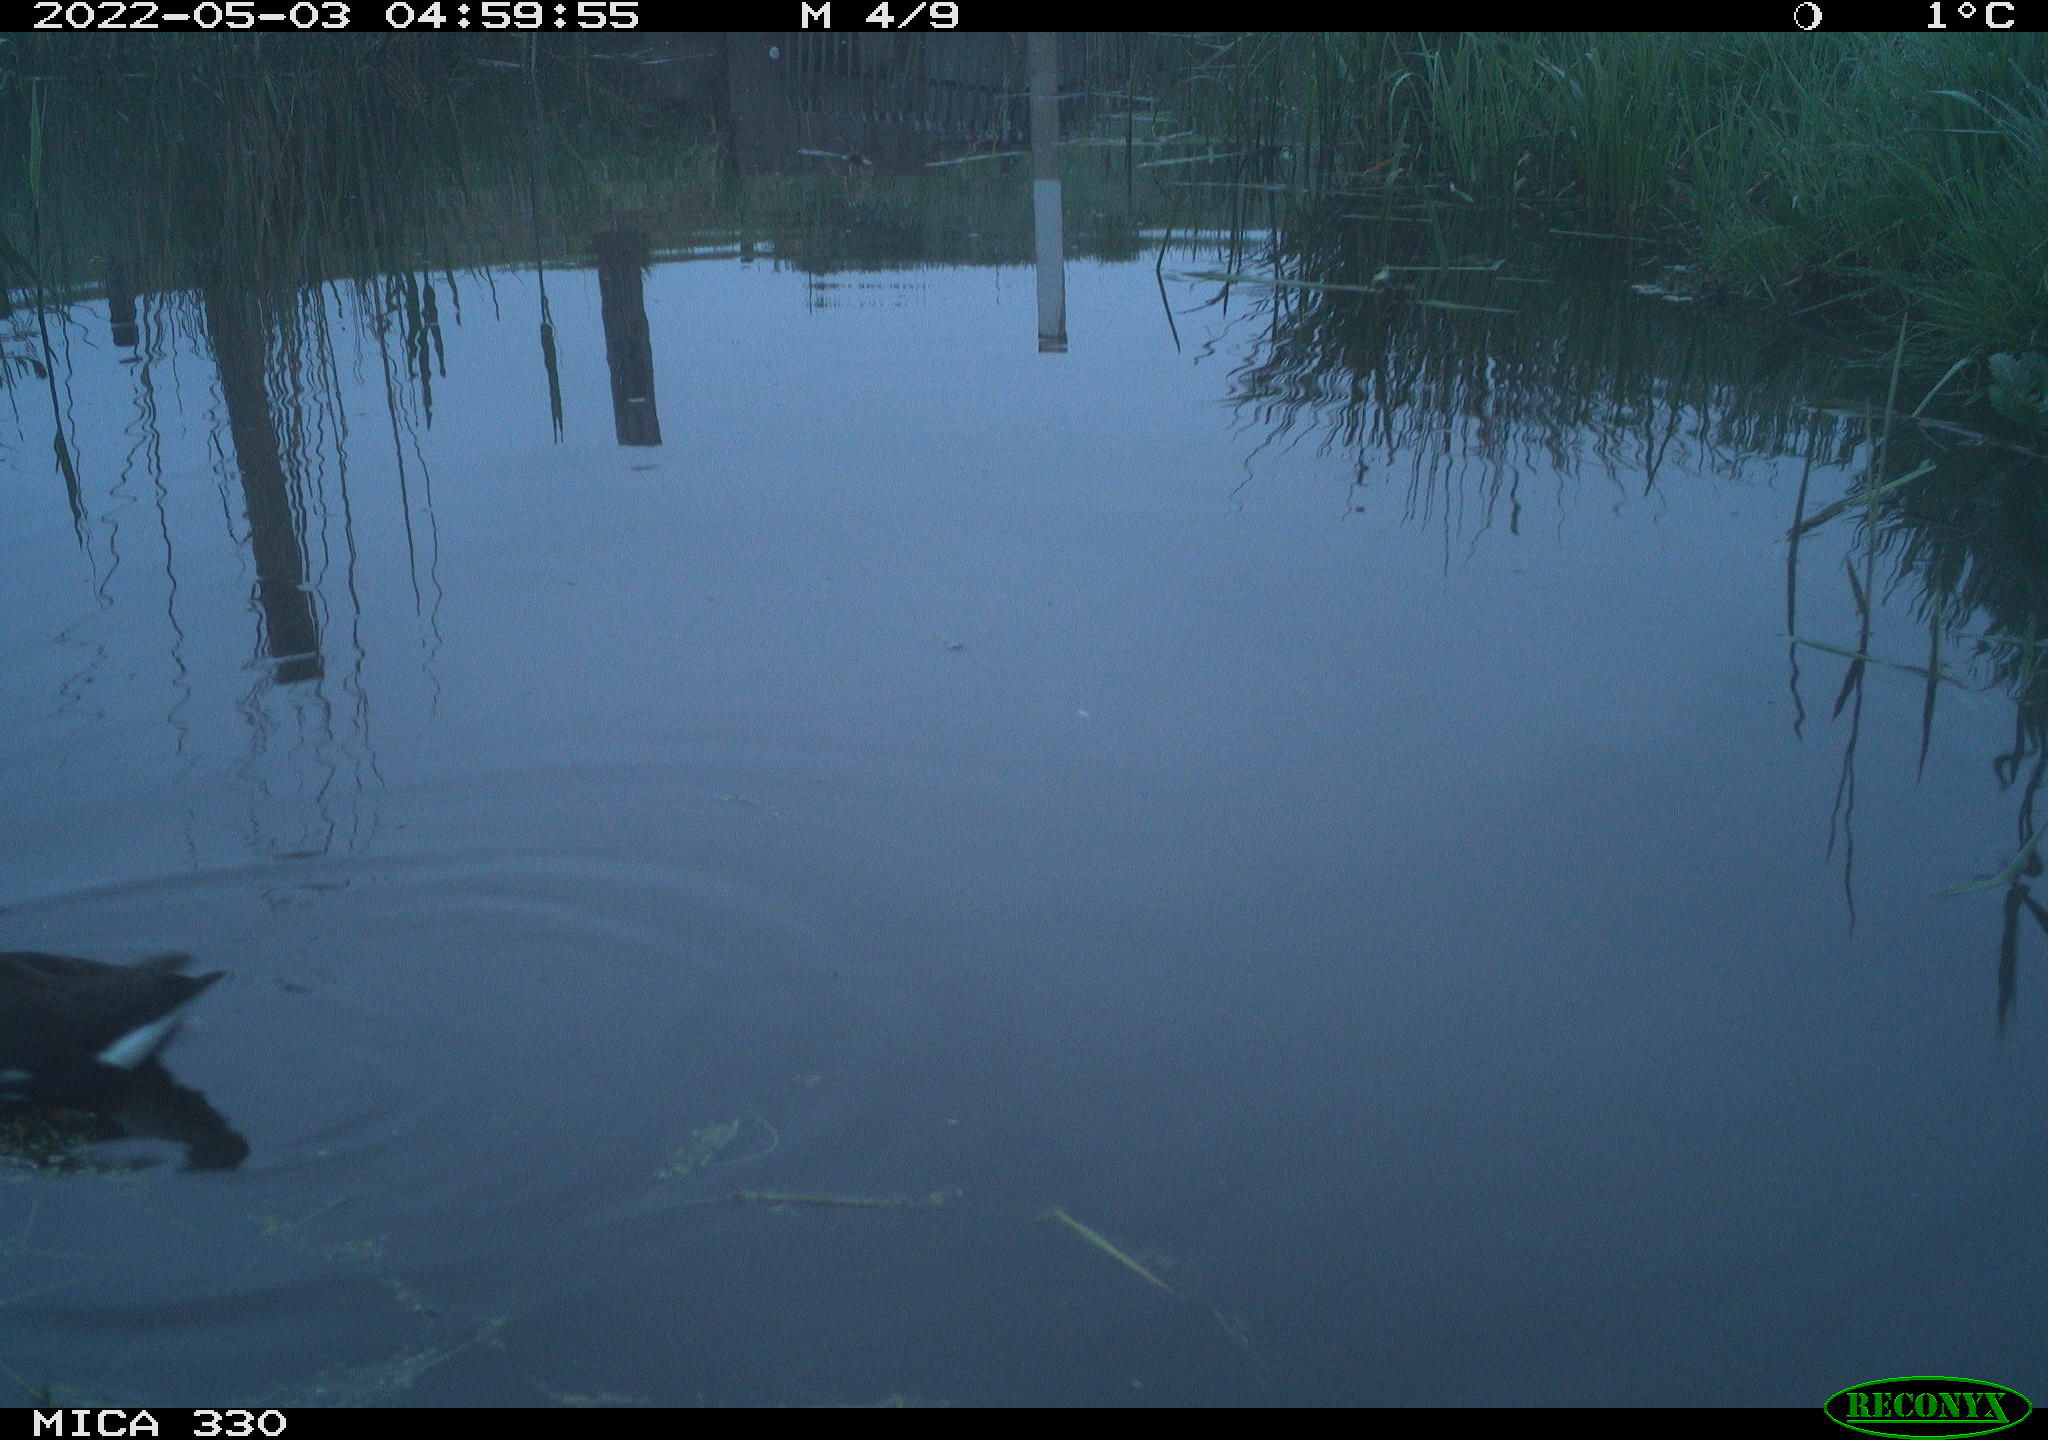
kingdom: Animalia
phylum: Chordata
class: Aves
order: Gruiformes
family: Rallidae
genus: Gallinula
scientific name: Gallinula chloropus
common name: Common moorhen
